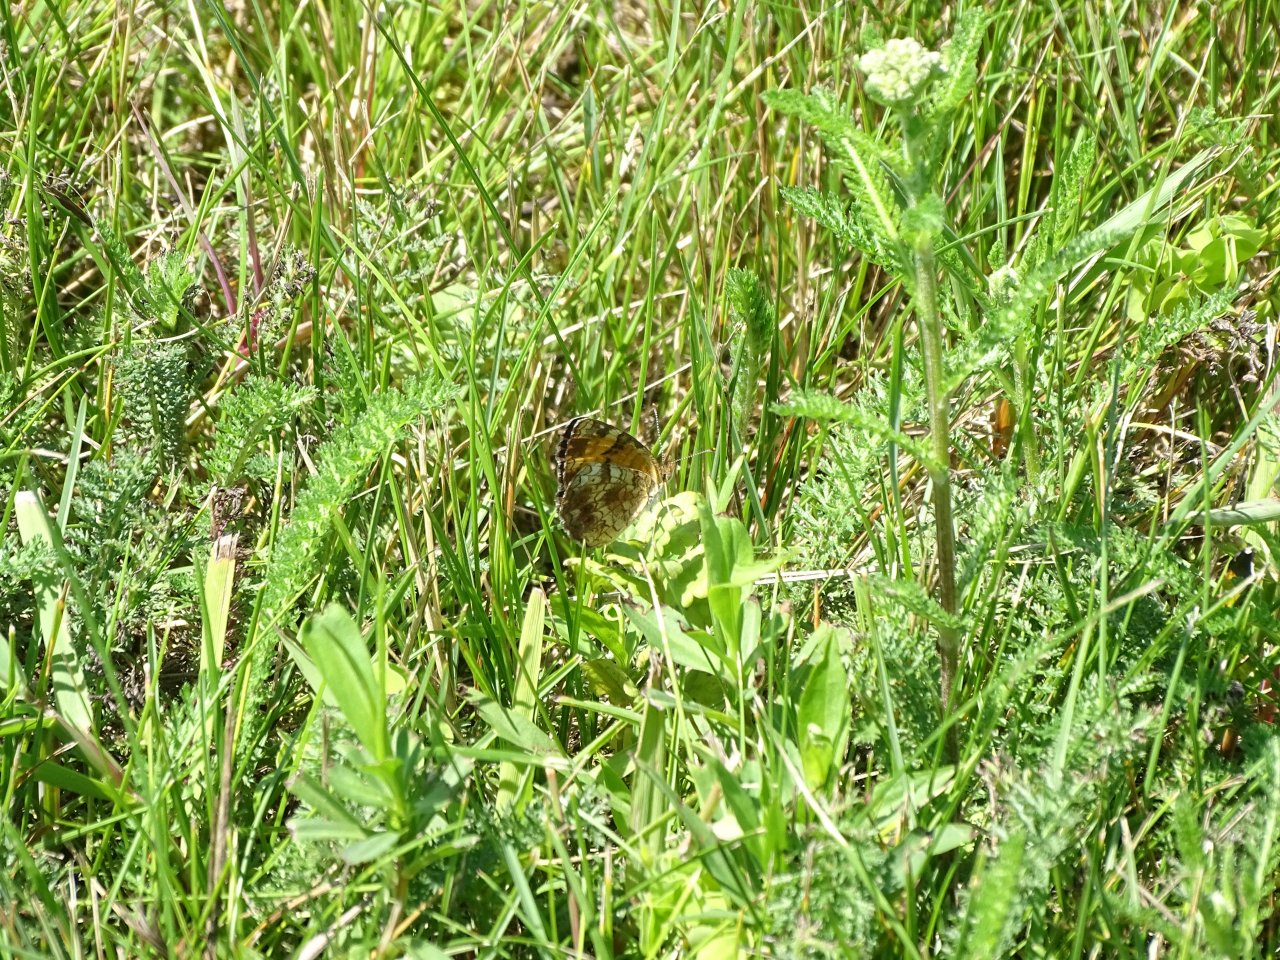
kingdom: Animalia
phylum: Arthropoda
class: Insecta
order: Lepidoptera
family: Nymphalidae
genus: Phyciodes
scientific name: Phyciodes tharos
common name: Pearl Crescent
